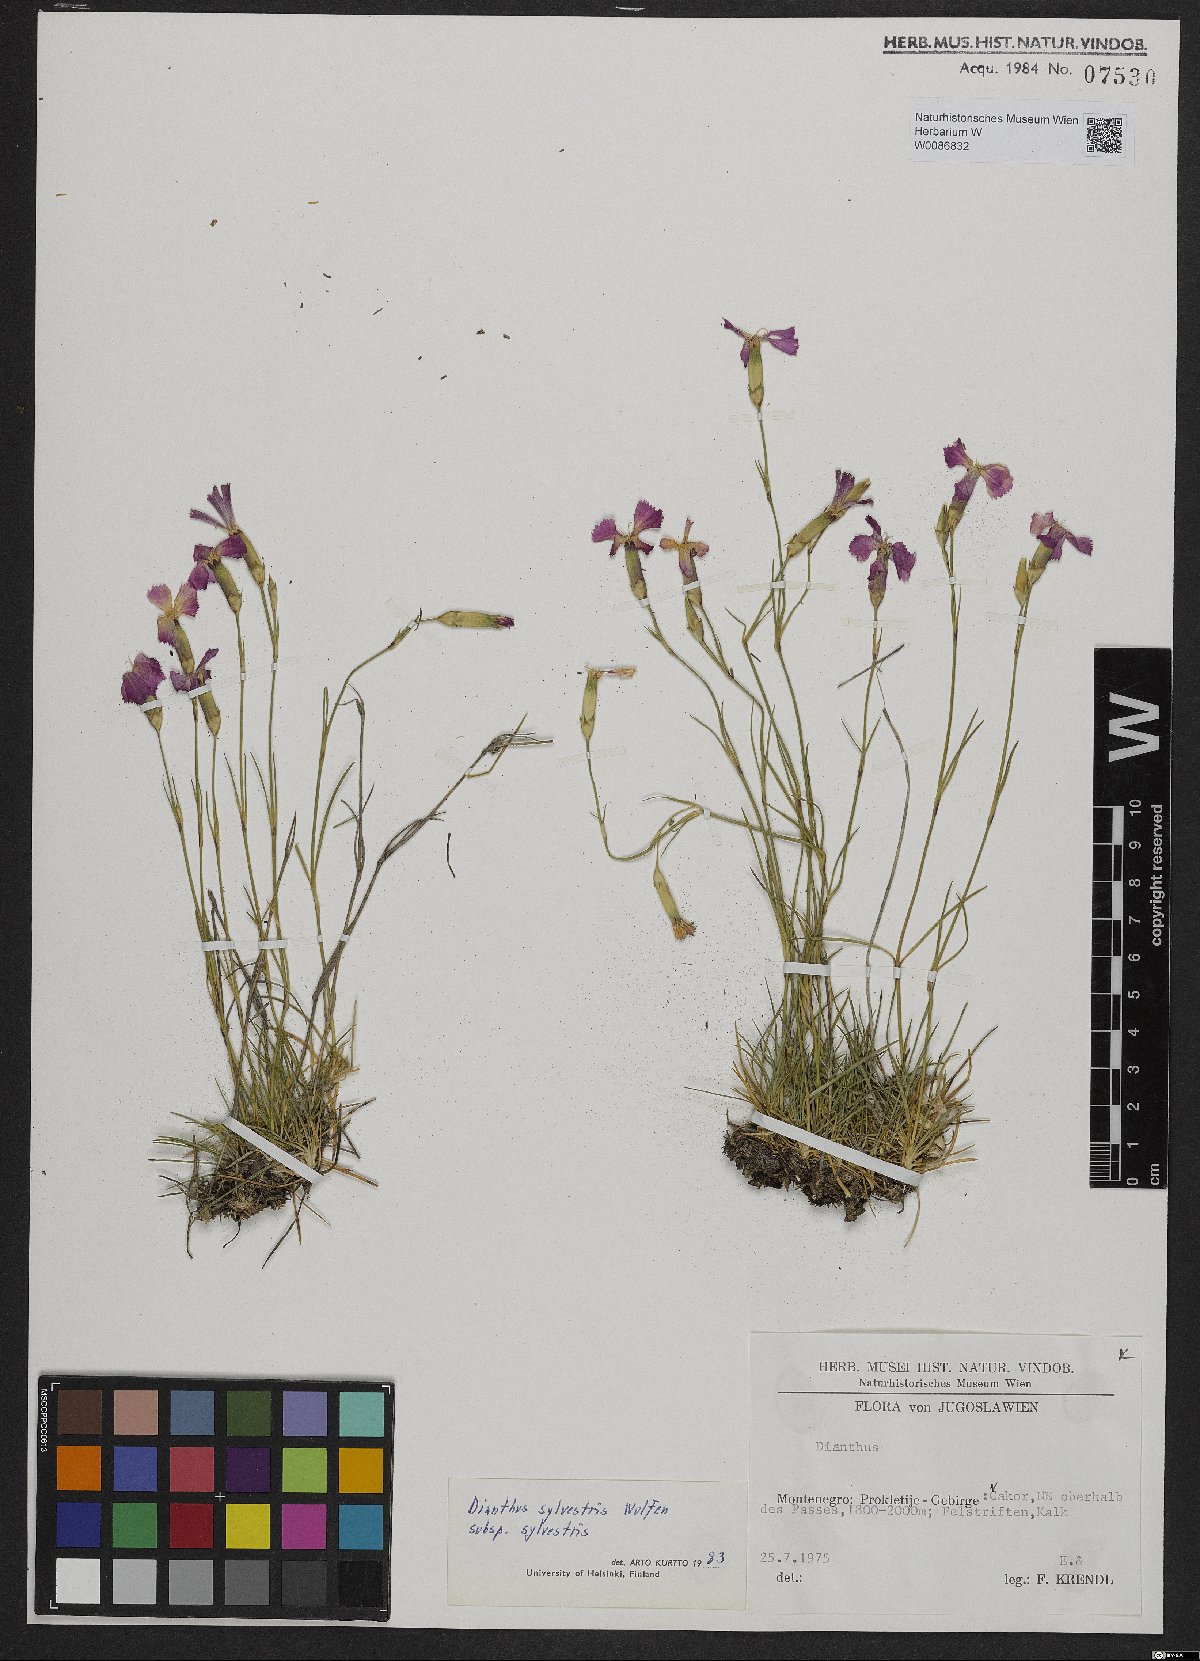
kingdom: Plantae
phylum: Tracheophyta
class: Magnoliopsida
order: Caryophyllales
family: Caryophyllaceae
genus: Dianthus
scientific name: Dianthus sylvestris
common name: Wood pink
